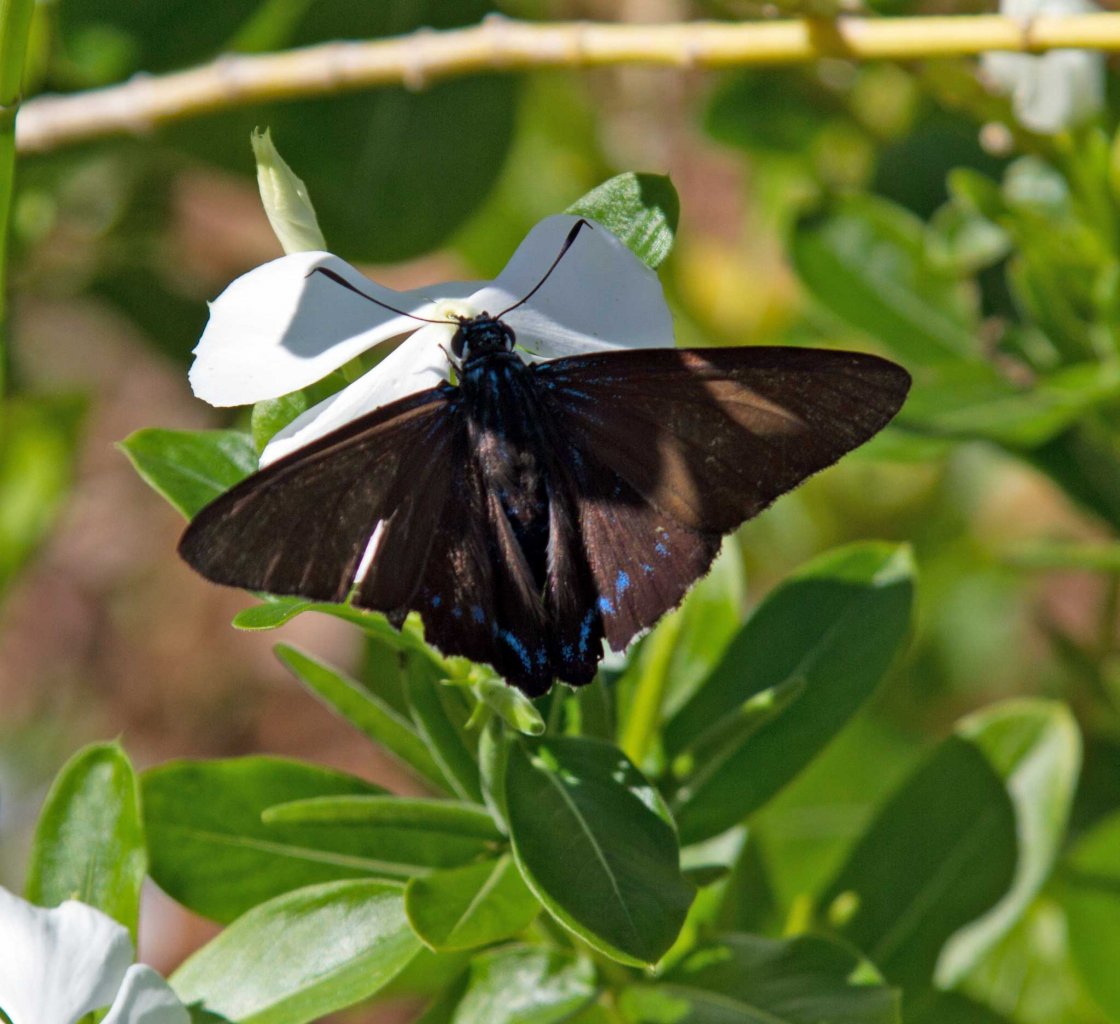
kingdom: Animalia
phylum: Arthropoda
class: Insecta
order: Lepidoptera
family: Hesperiidae
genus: Phocides
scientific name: Phocides pigmalion
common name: Mangrove Skipper
